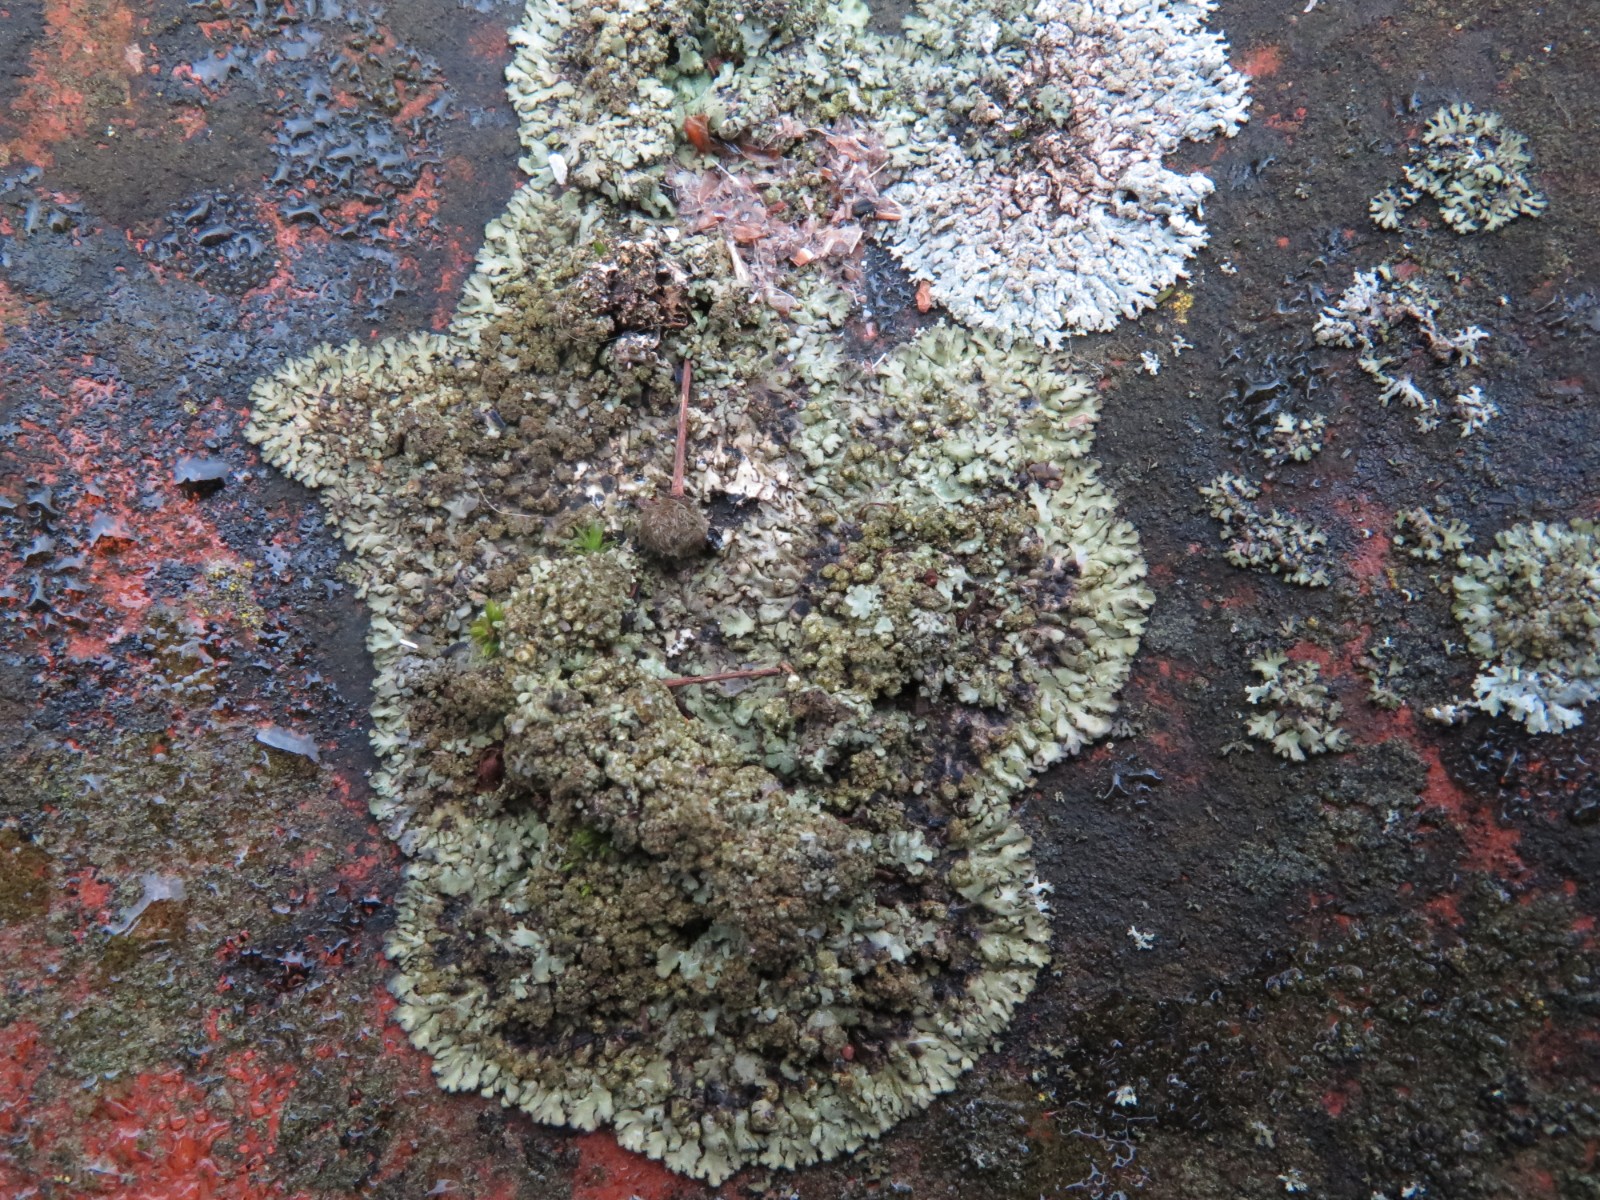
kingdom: Fungi
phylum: Ascomycota
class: Lecanoromycetes
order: Caliciales
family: Physciaceae
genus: Phaeophyscia
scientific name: Phaeophyscia orbicularis
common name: grågrøn rosetlav
